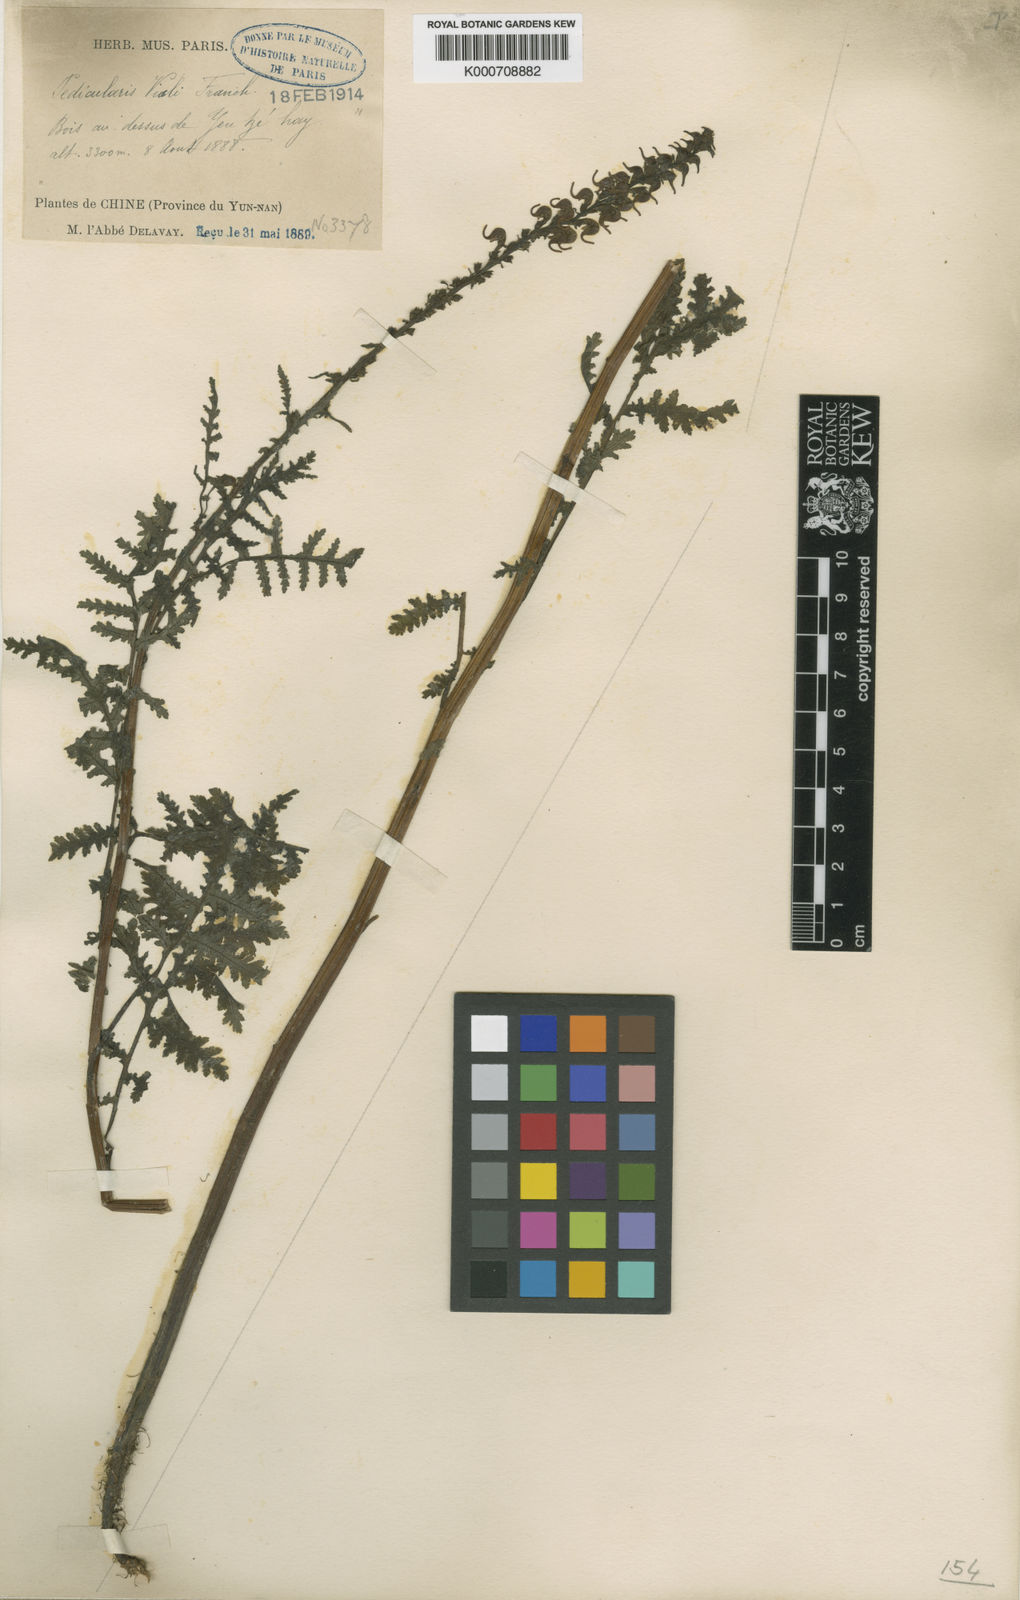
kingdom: Plantae
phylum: Tracheophyta
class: Magnoliopsida
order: Lamiales
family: Orobanchaceae
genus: Pedicularis
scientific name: Pedicularis
